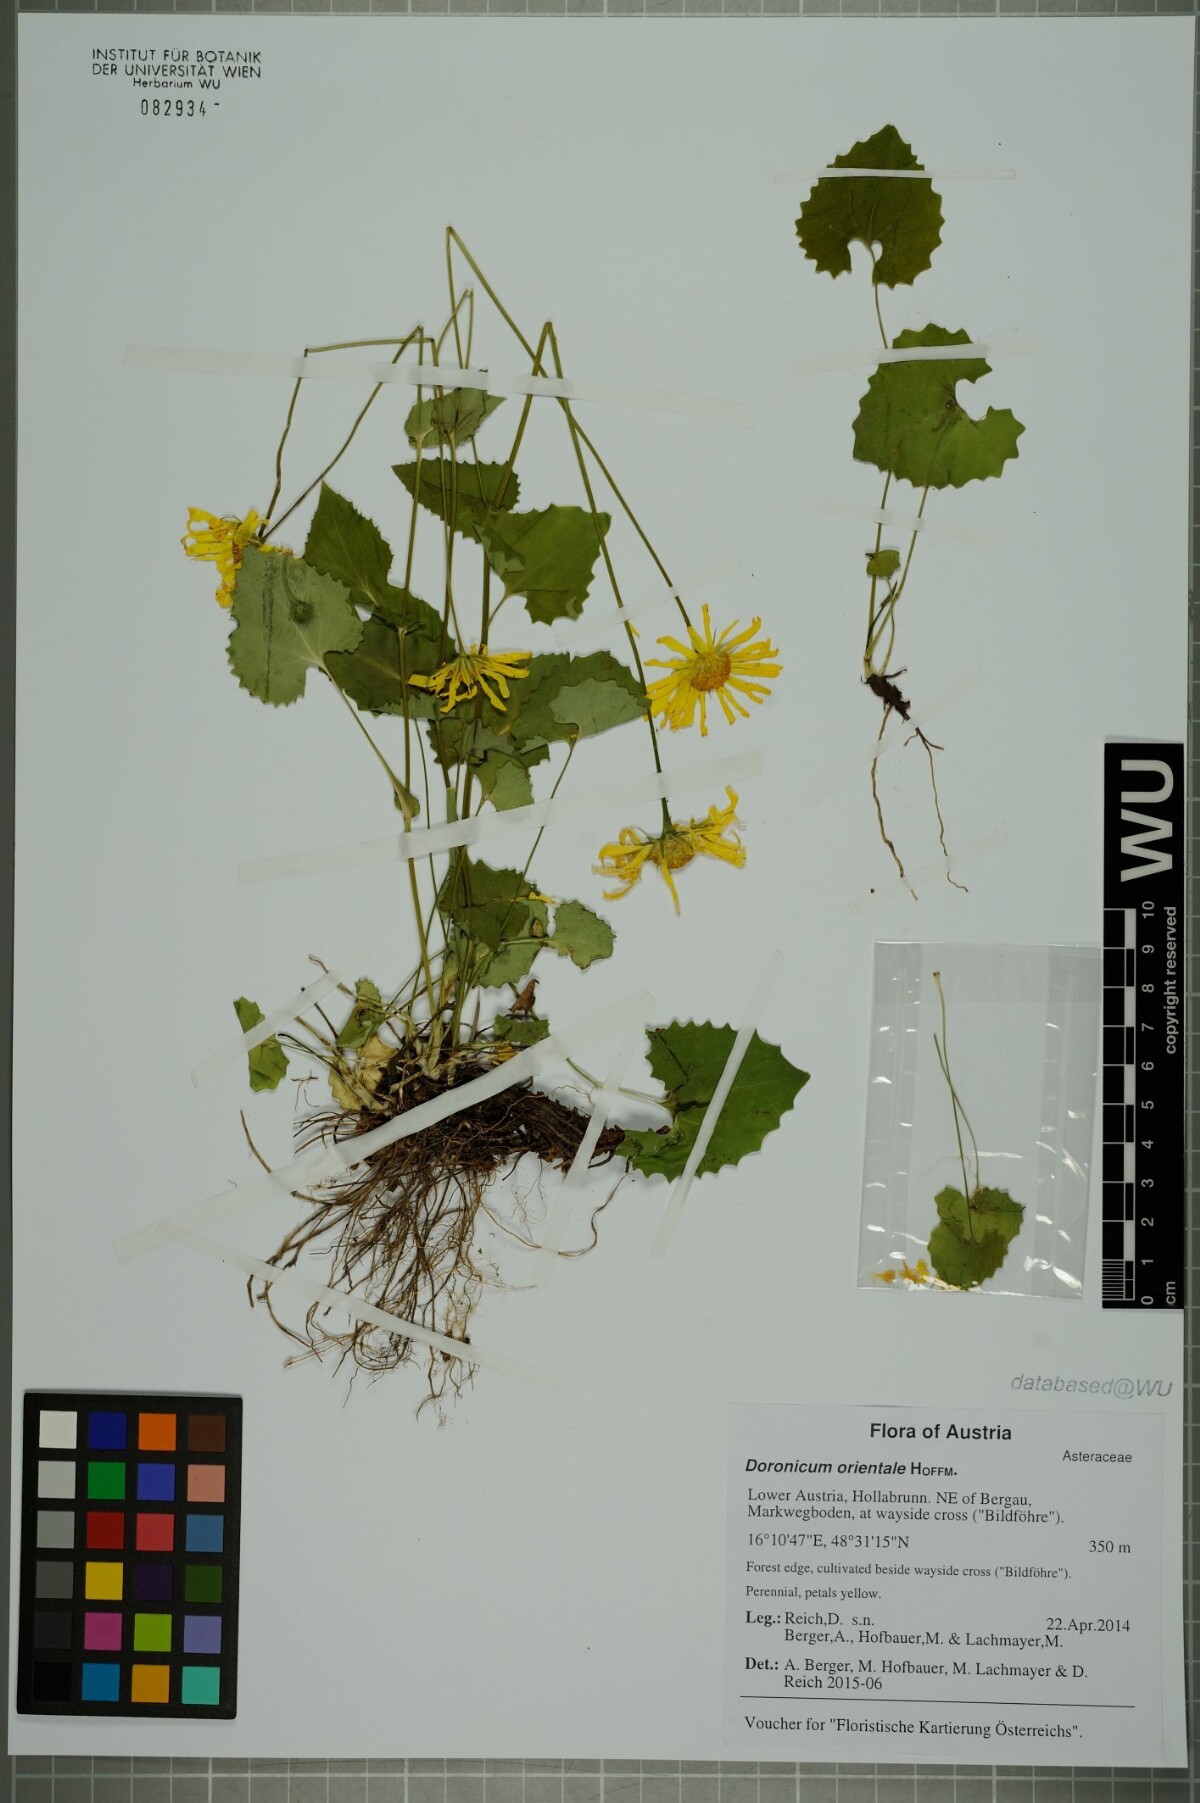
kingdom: Plantae
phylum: Tracheophyta
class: Magnoliopsida
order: Asterales
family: Asteraceae
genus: Doronicum
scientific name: Doronicum orientale
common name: Oriental leopard's-bane
